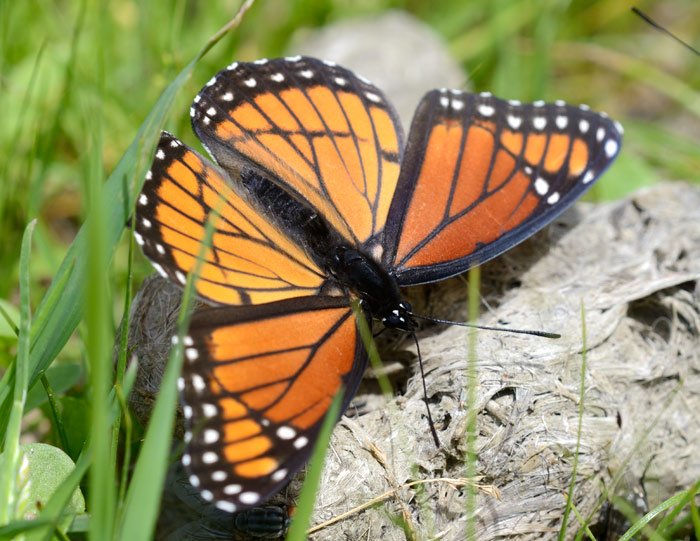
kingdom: Animalia
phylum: Arthropoda
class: Insecta
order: Lepidoptera
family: Nymphalidae
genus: Limenitis
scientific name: Limenitis archippus
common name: Viceroy
